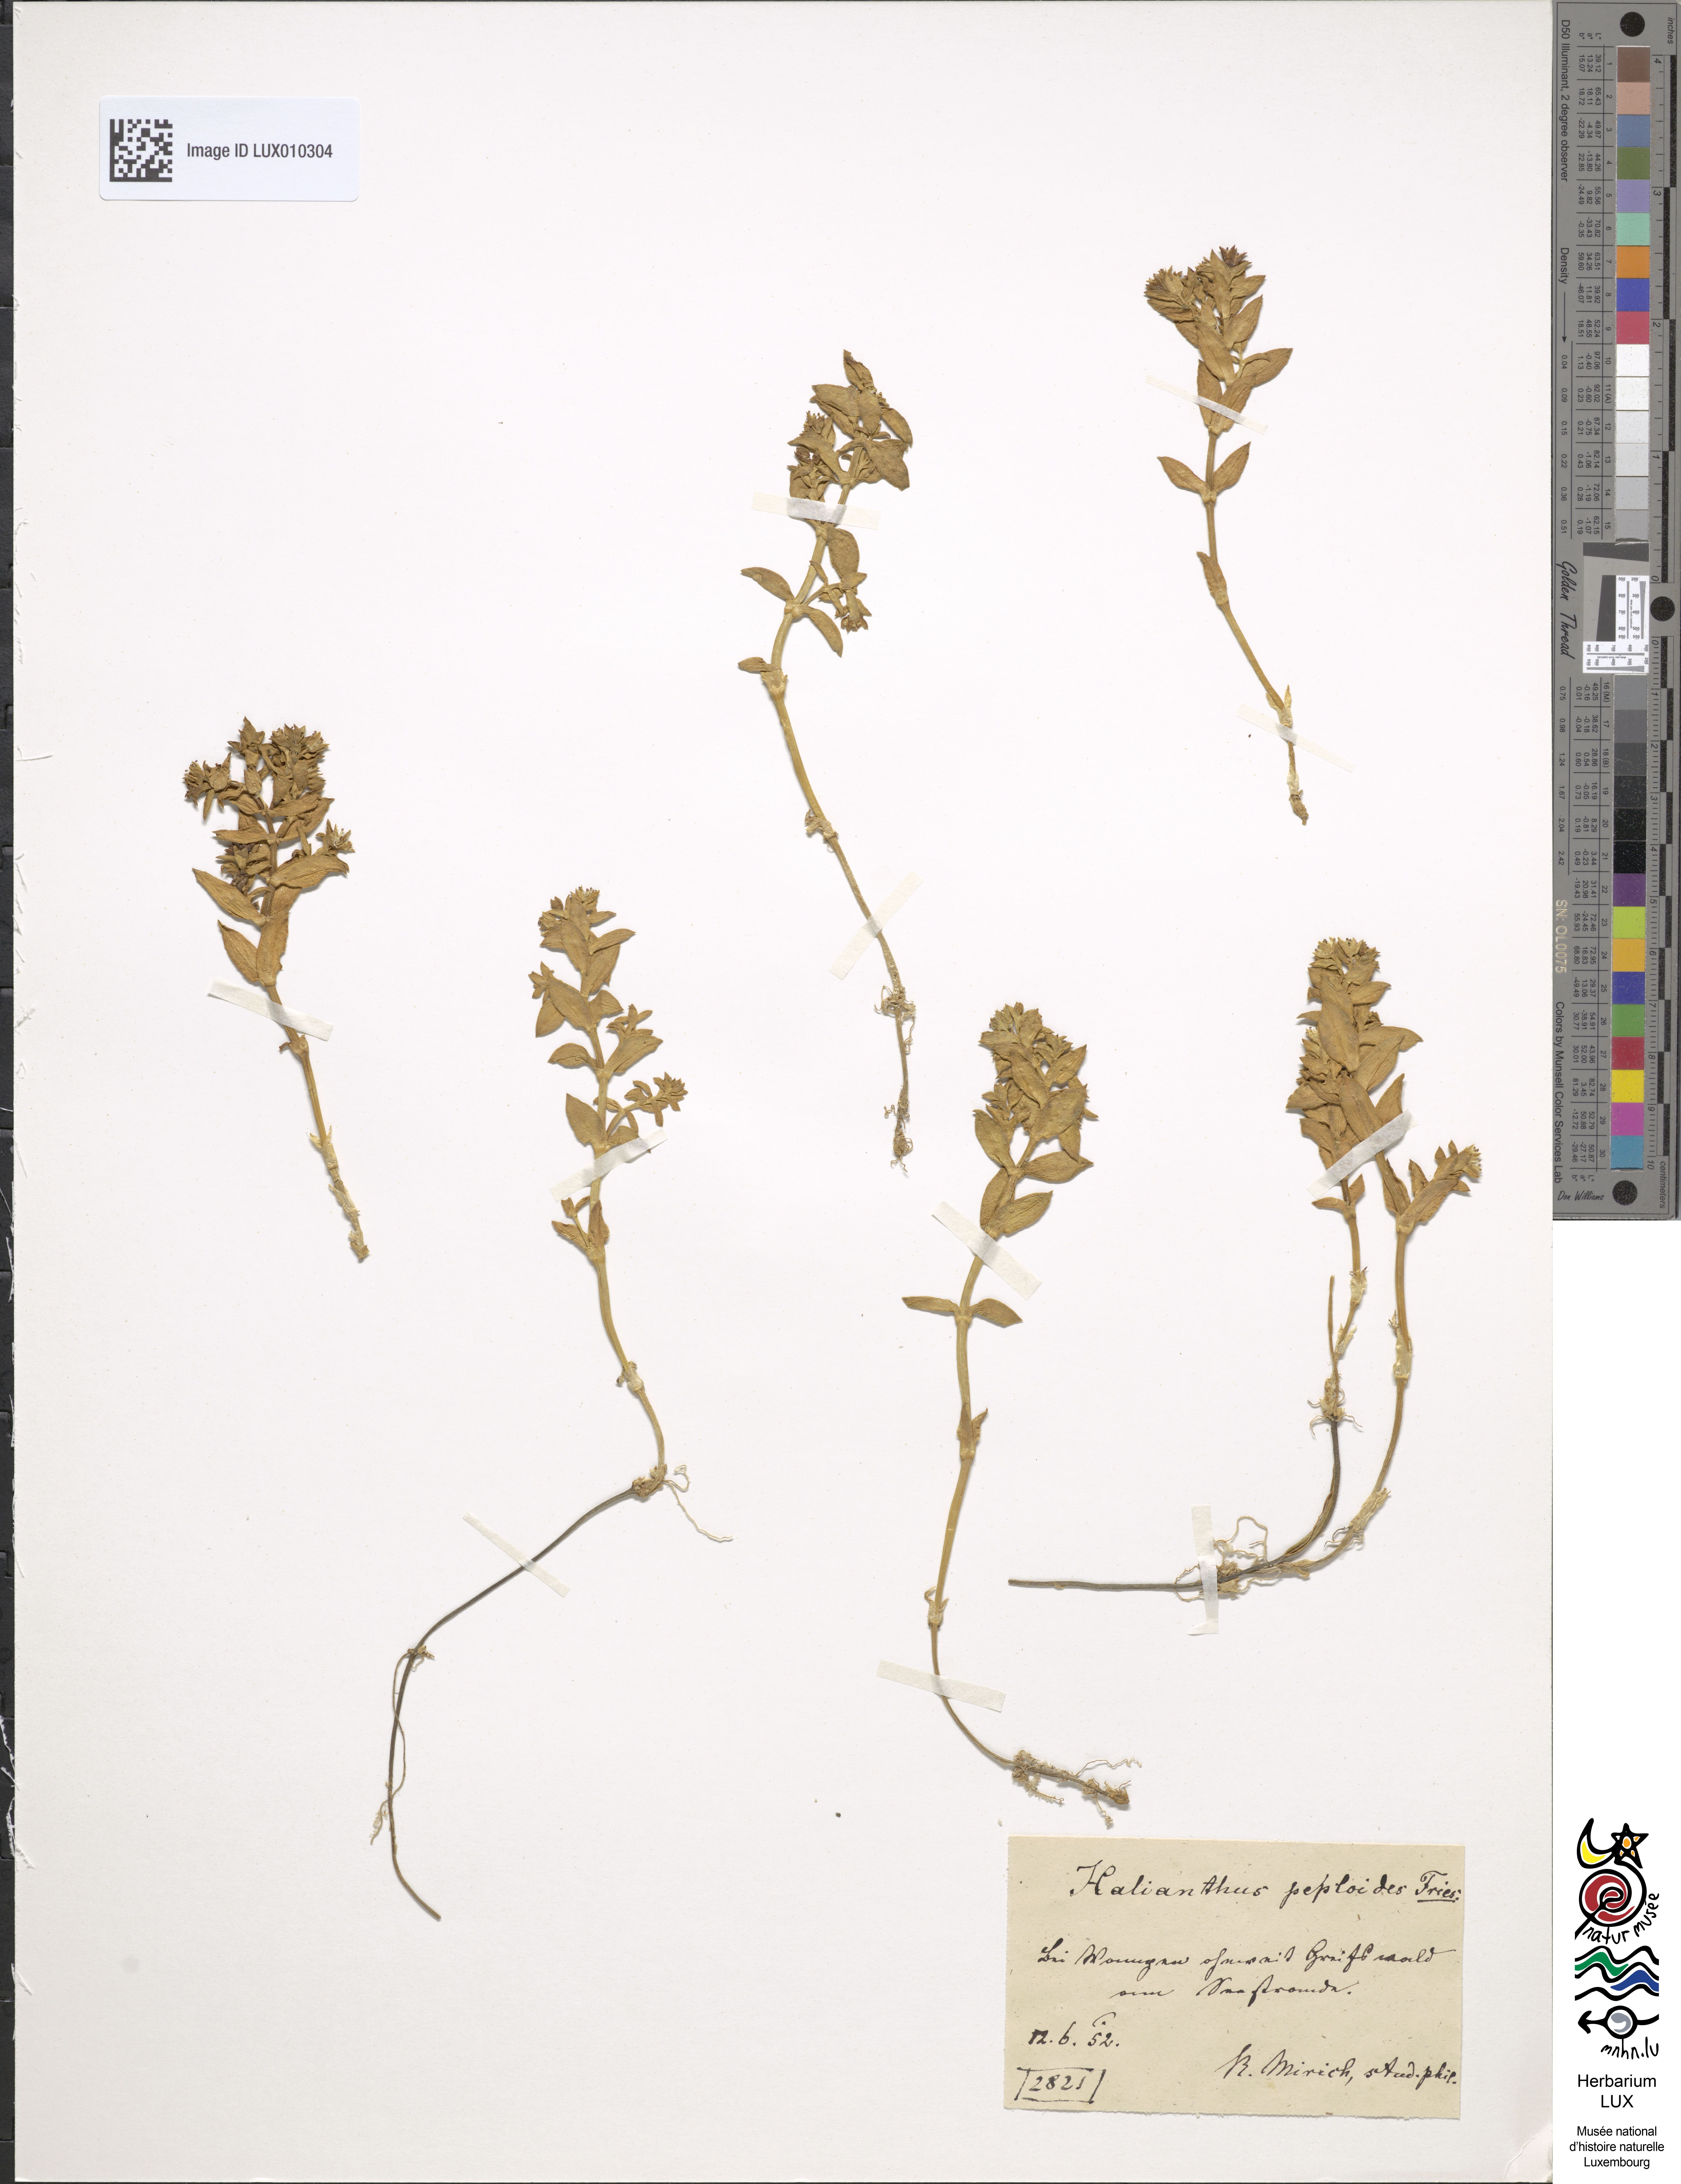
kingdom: Plantae
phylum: Tracheophyta
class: Magnoliopsida
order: Caryophyllales
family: Caryophyllaceae
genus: Honckenya
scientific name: Honckenya peploides
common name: Sea sandwort
